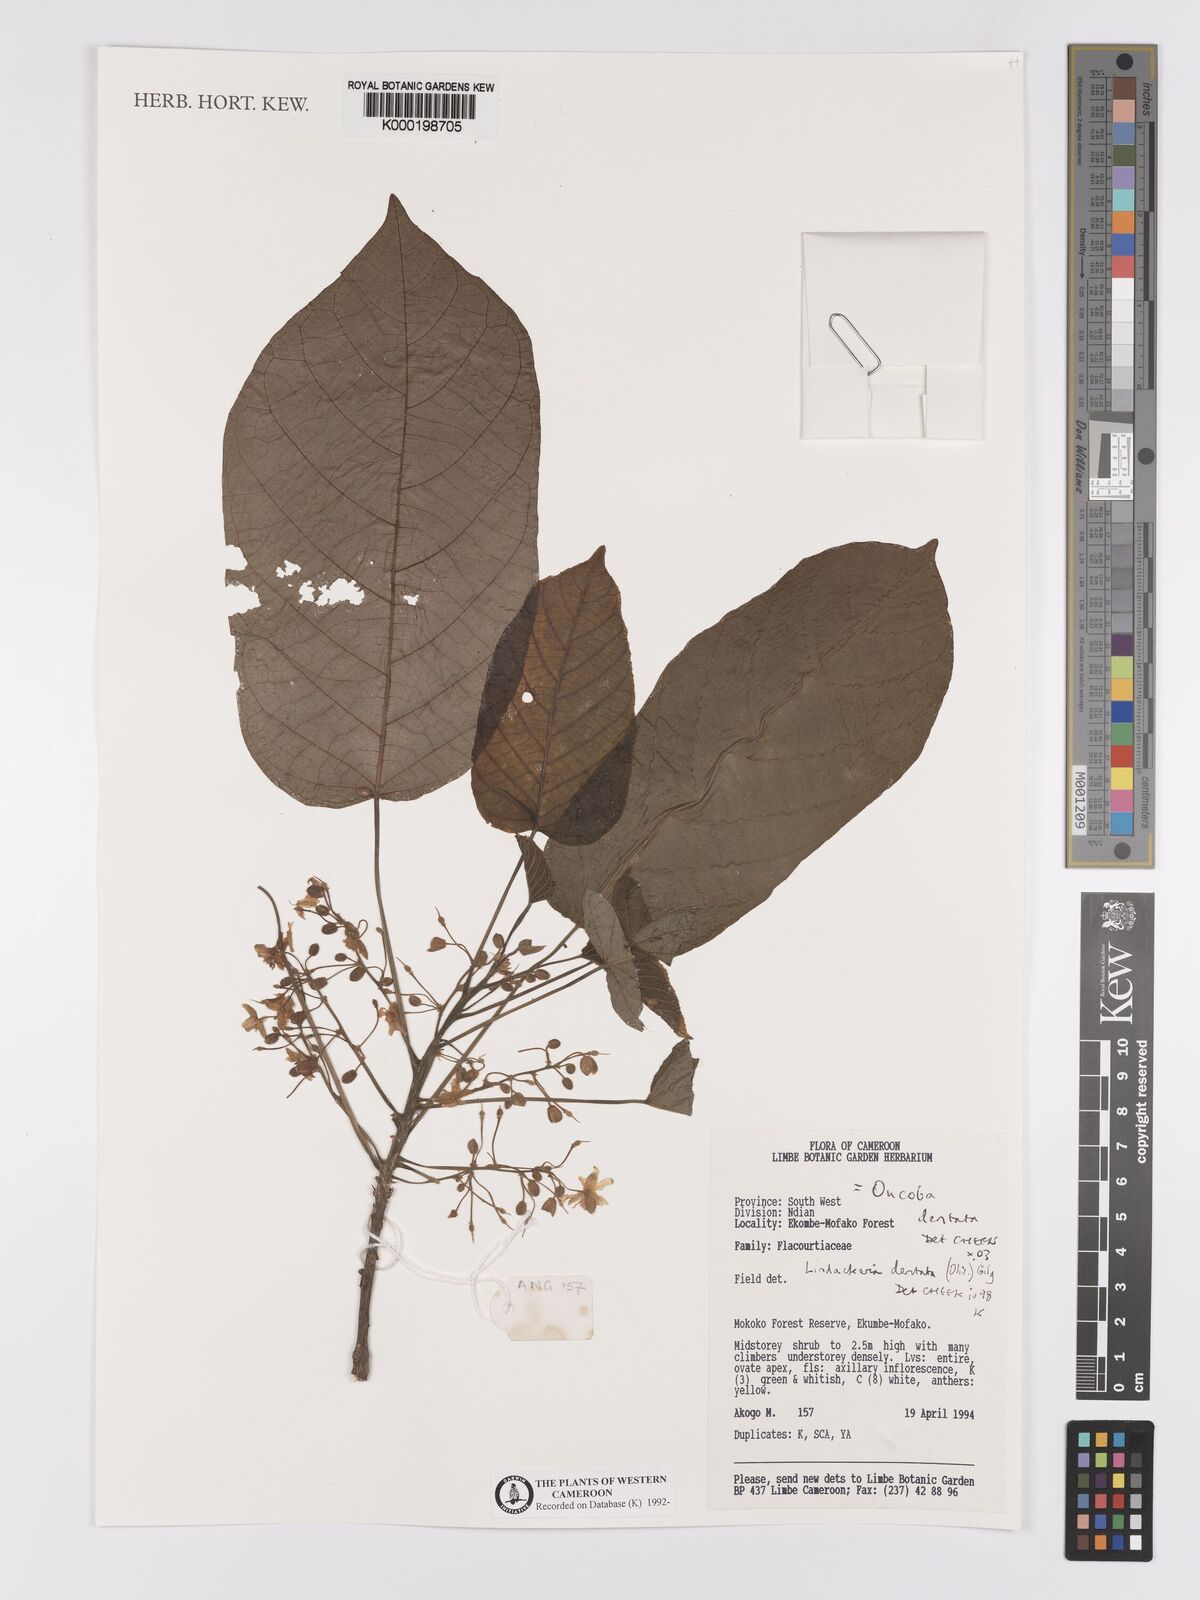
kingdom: Plantae
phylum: Tracheophyta
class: Magnoliopsida
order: Malpighiales
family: Achariaceae
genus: Lindackeria
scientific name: Lindackeria dentata
